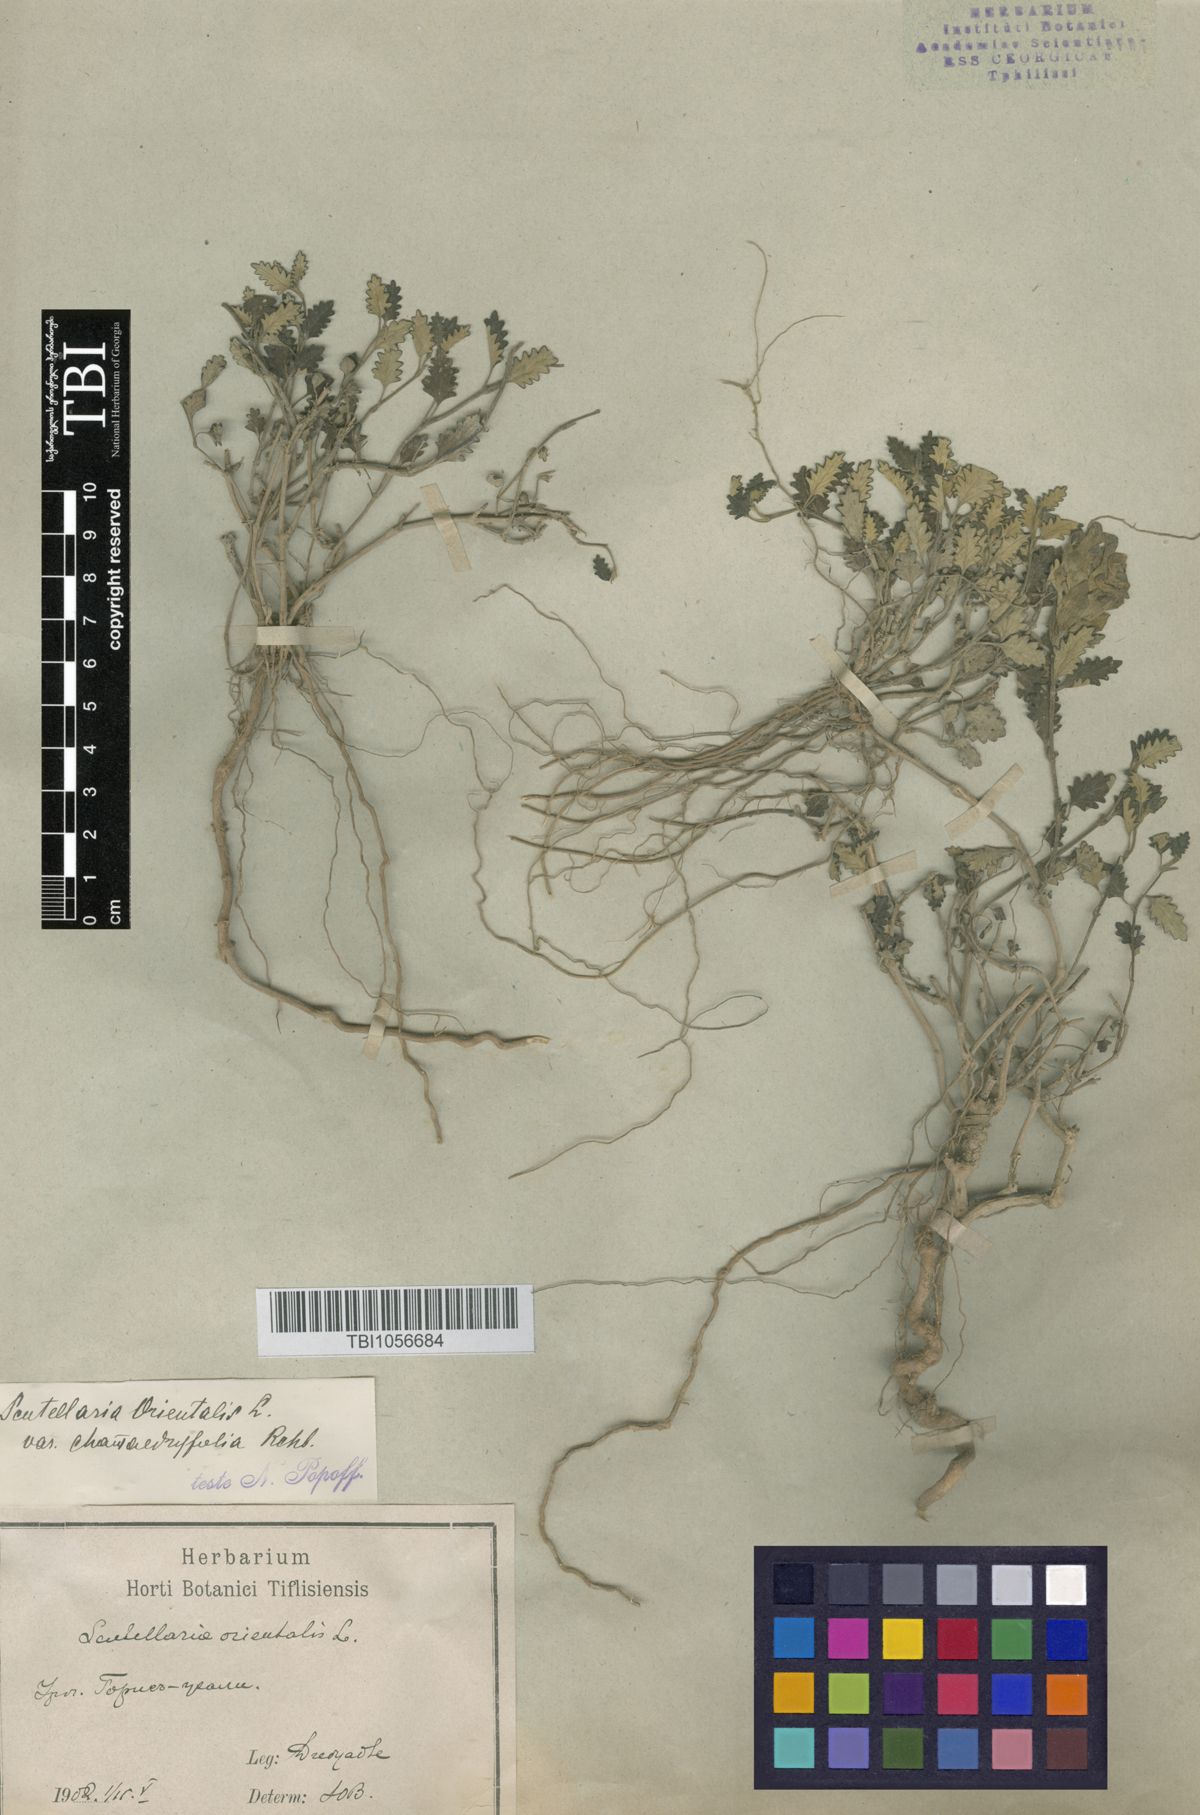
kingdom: Plantae
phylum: Tracheophyta
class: Magnoliopsida
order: Lamiales
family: Lamiaceae
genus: Scutellaria
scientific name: Scutellaria orientalis
